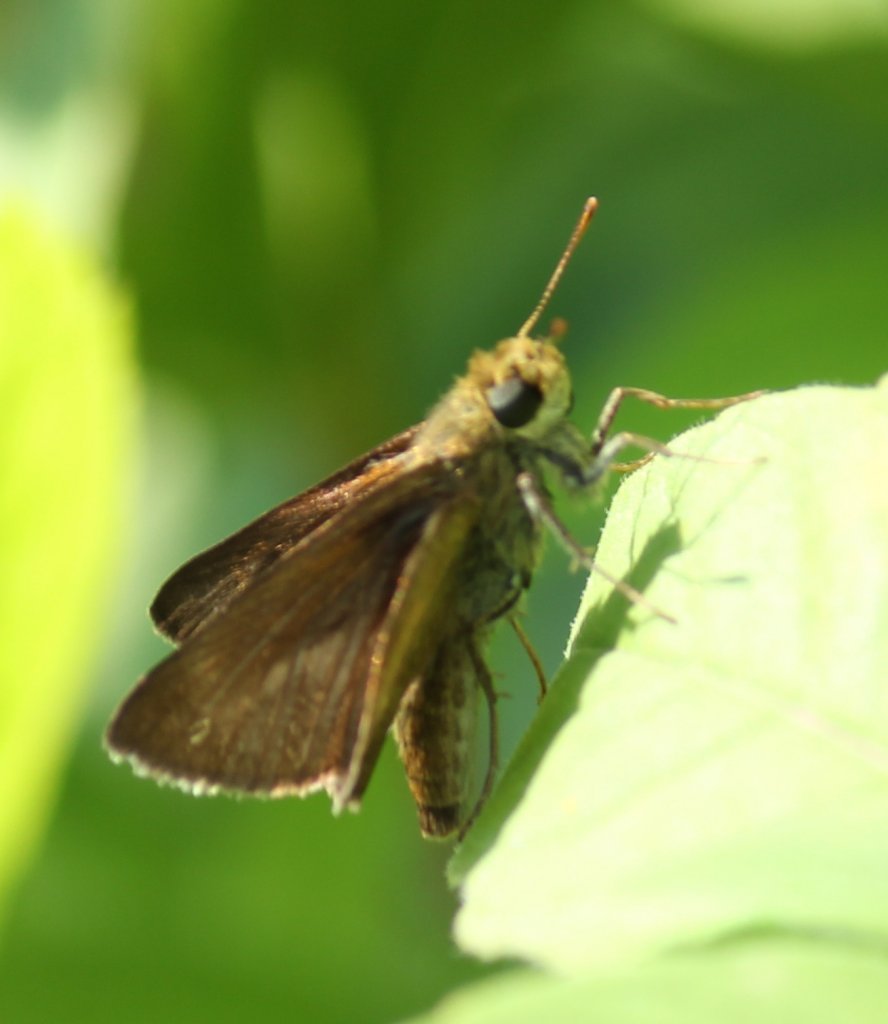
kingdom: Animalia
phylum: Arthropoda
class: Insecta
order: Lepidoptera
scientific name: Lepidoptera
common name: Butterflies
